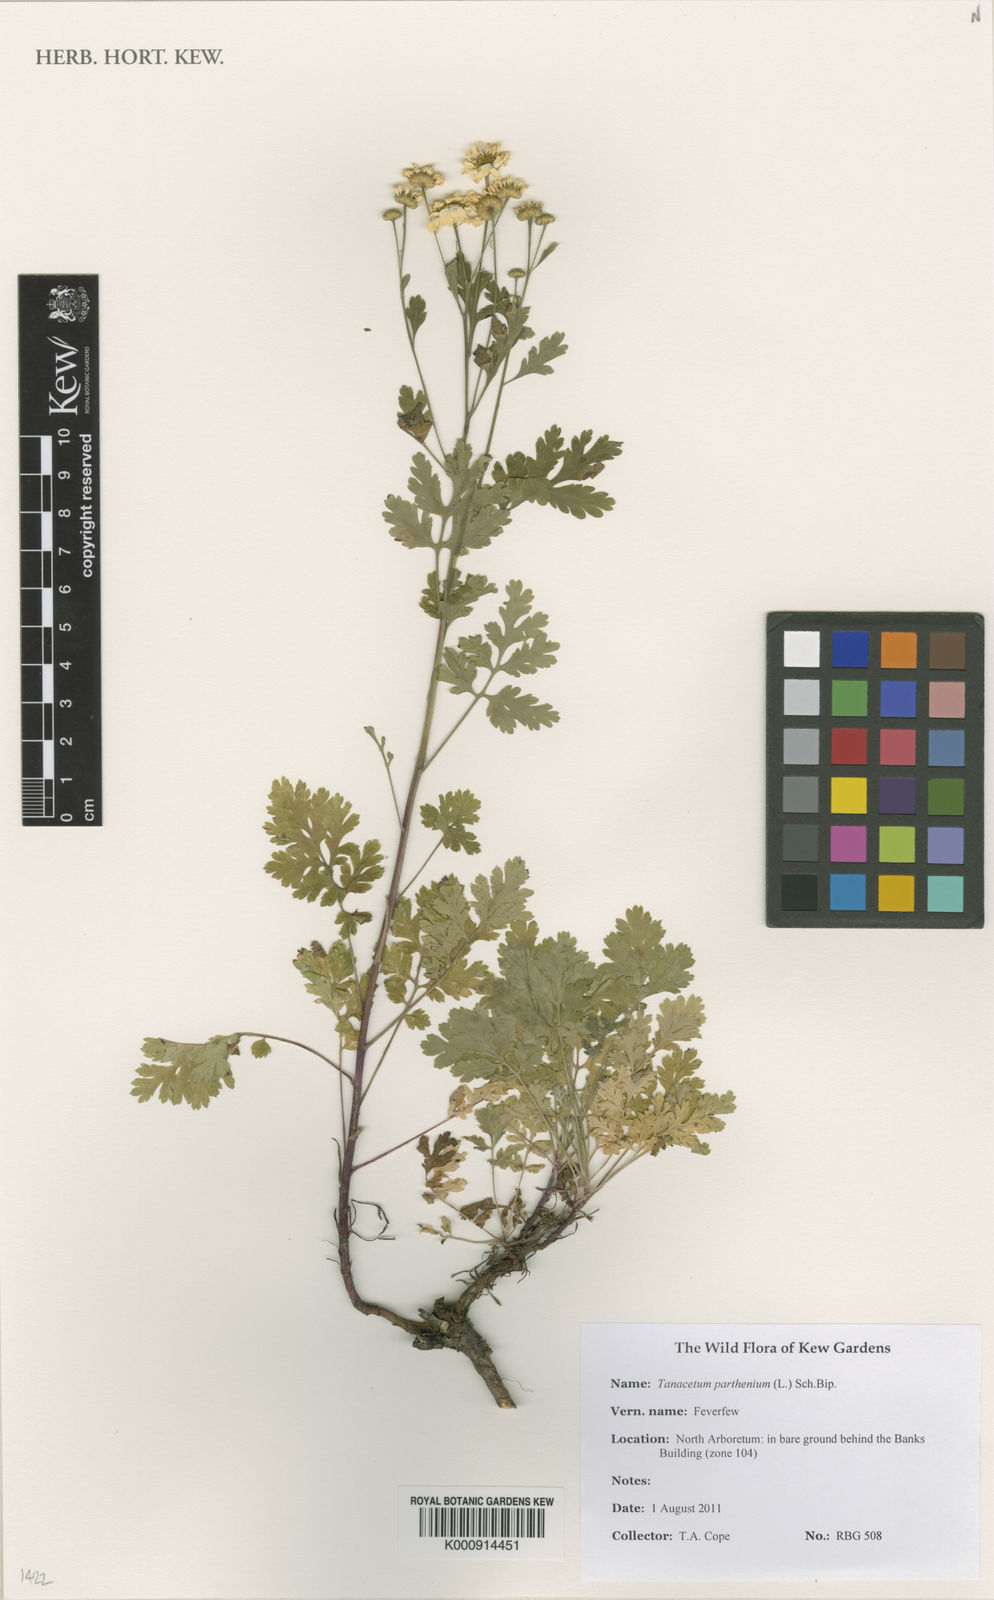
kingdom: Plantae
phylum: Tracheophyta
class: Magnoliopsida
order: Asterales
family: Asteraceae
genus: Tanacetum
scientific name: Tanacetum parthenium
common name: Feverfew
